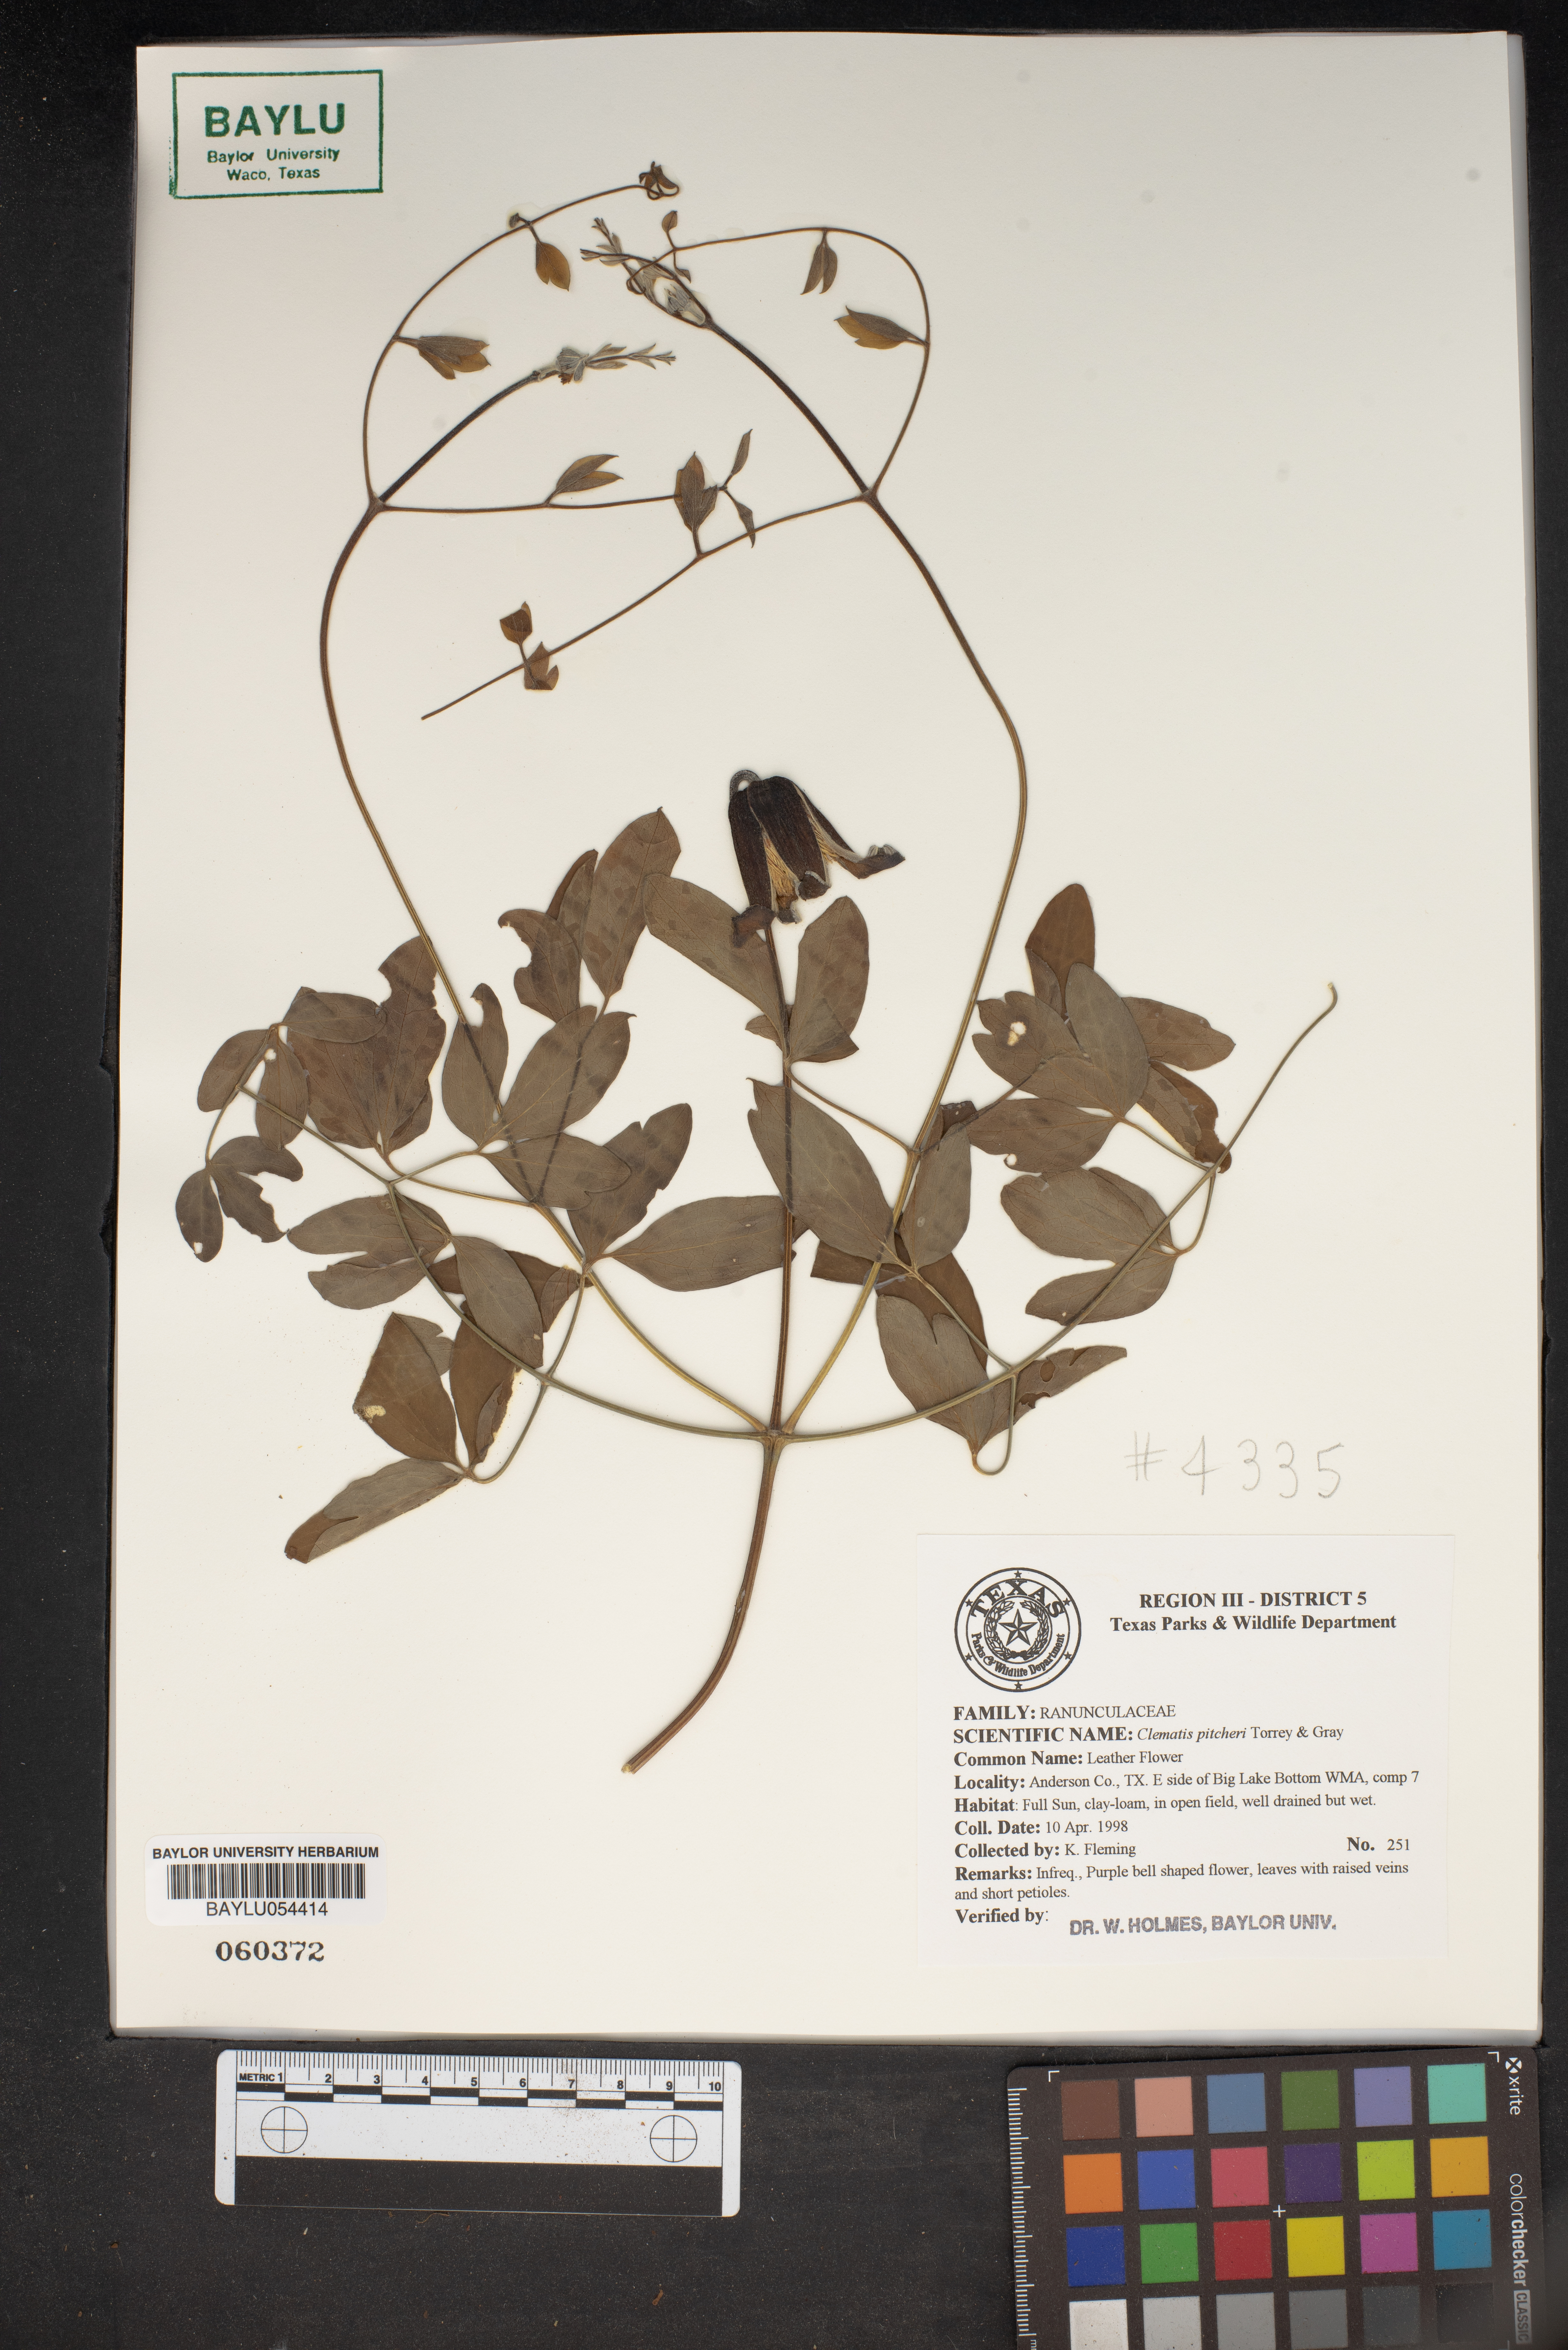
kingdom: Plantae
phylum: Tracheophyta
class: Magnoliopsida
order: Ranunculales
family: Ranunculaceae
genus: Clematis
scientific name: Clematis pitcheri
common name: Bellflower clematis
